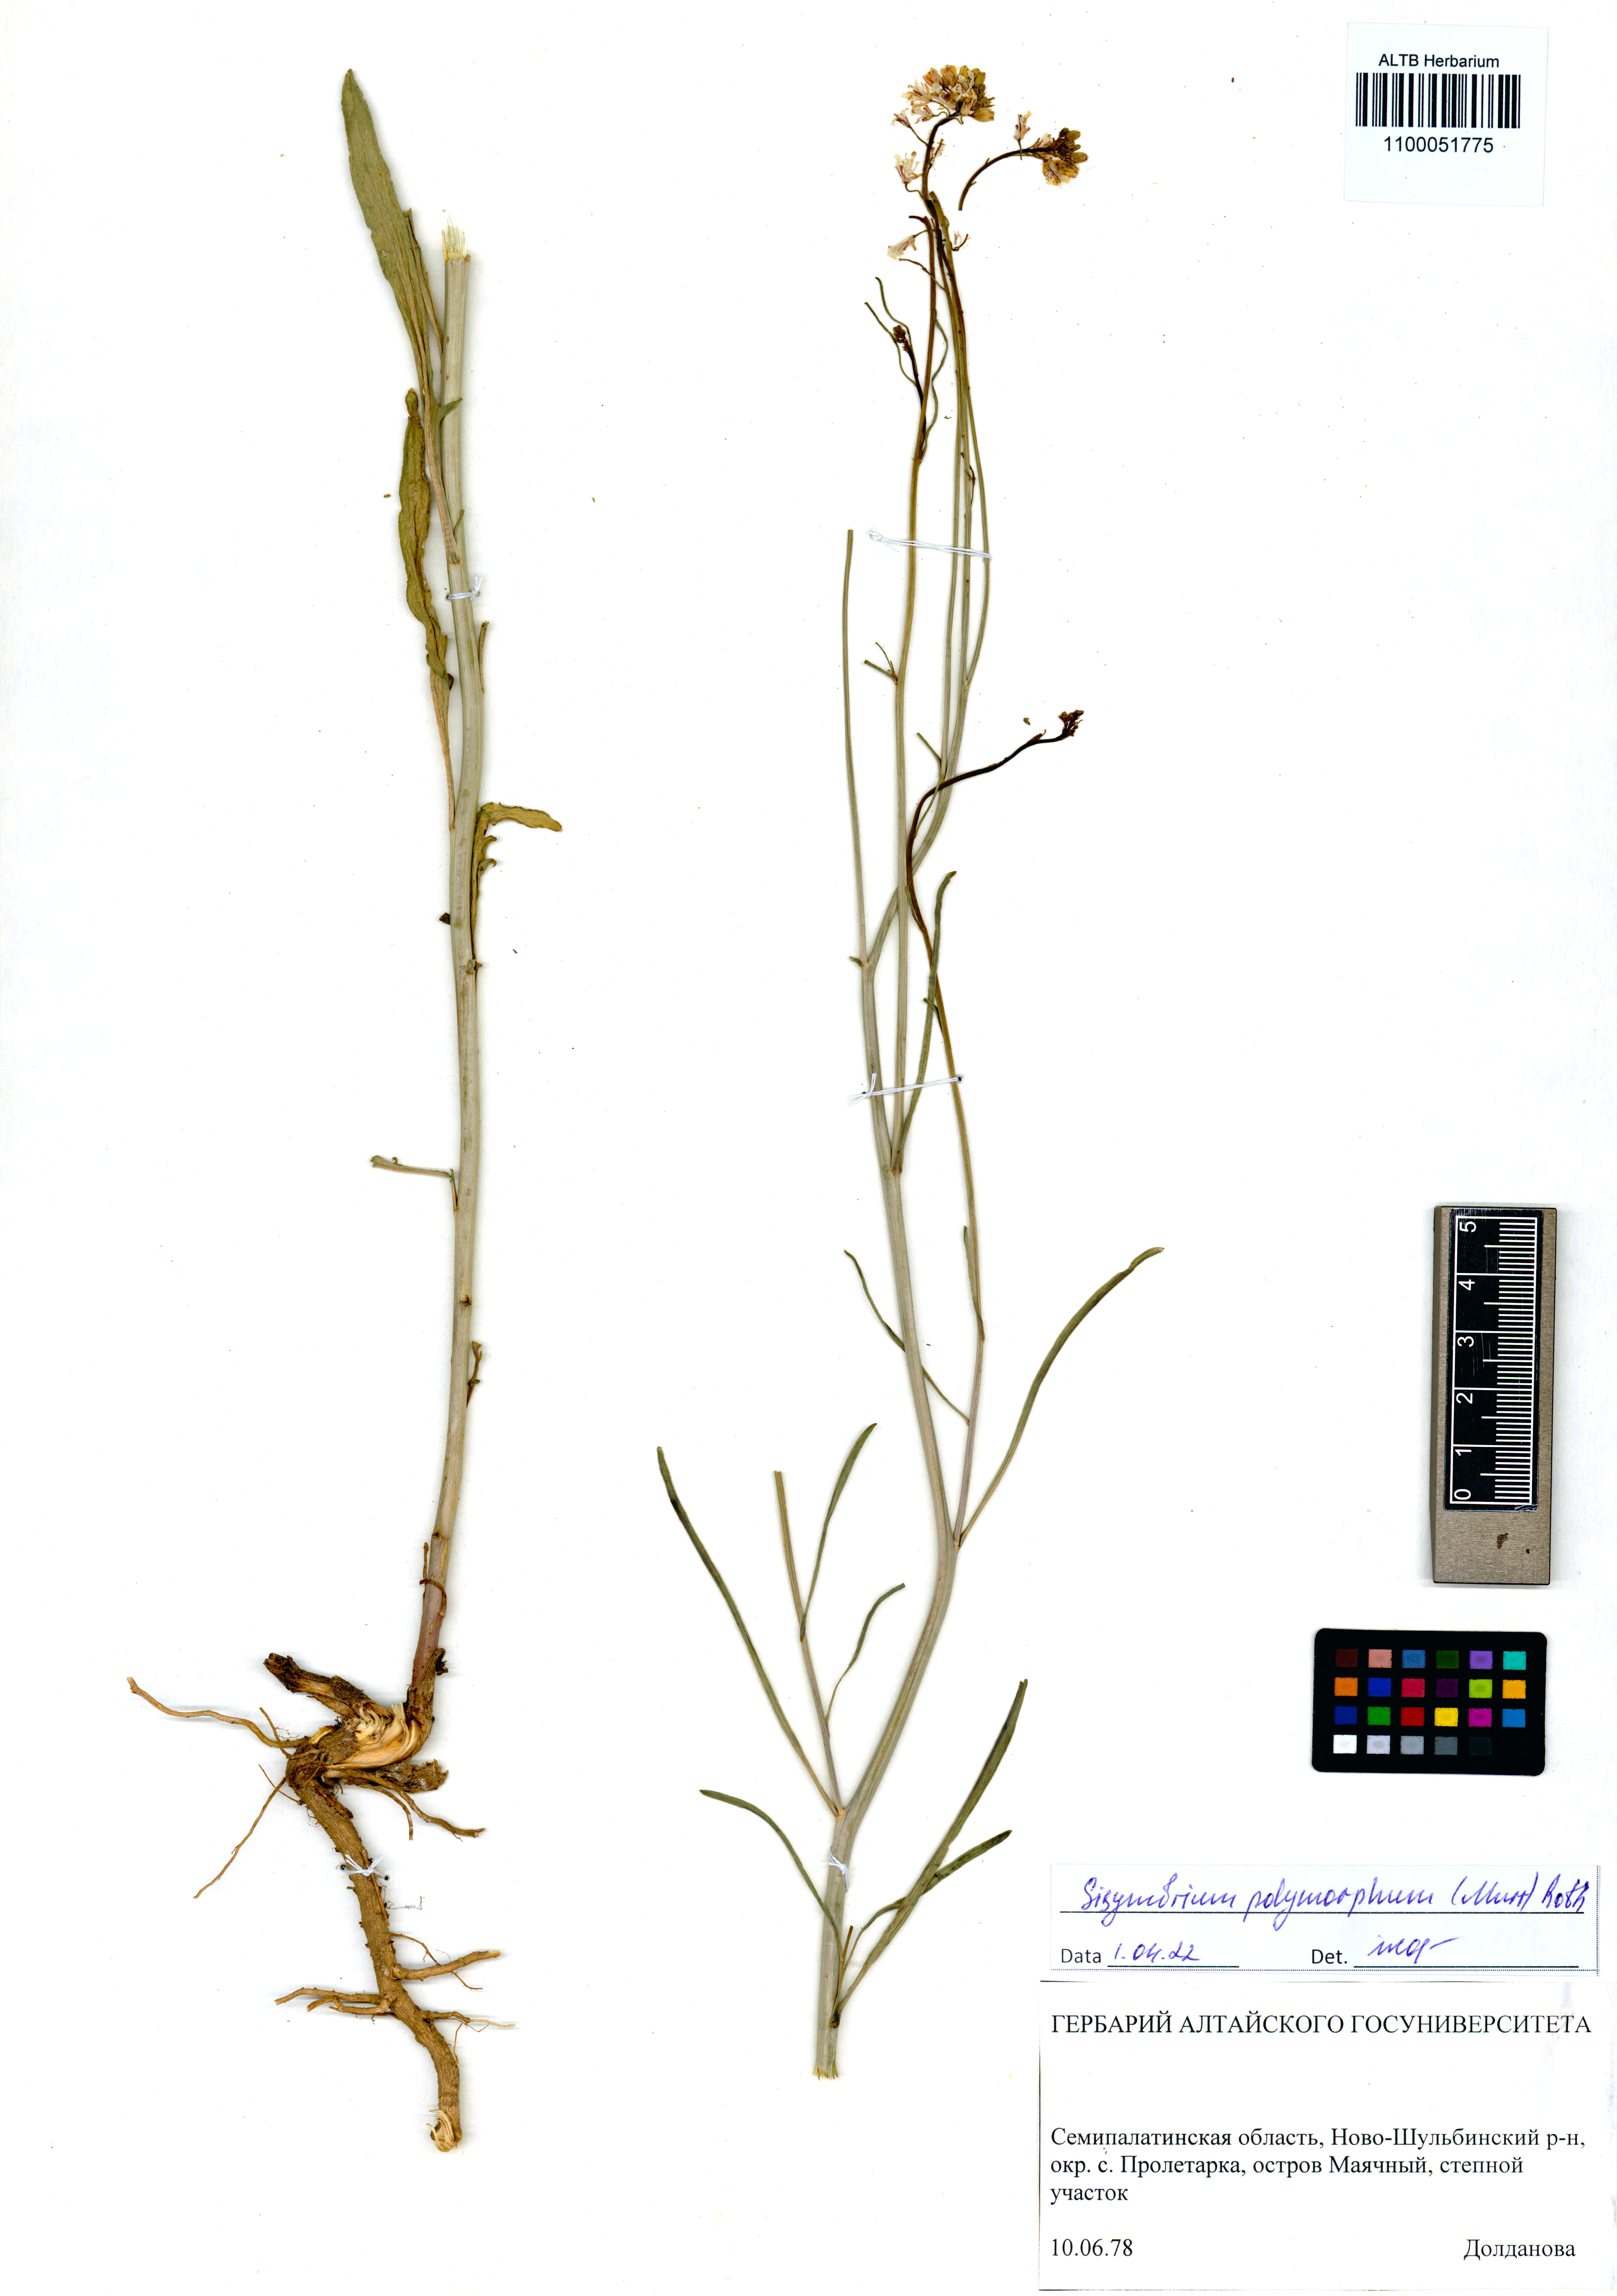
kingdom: Plantae
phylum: Tracheophyta
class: Magnoliopsida
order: Brassicales
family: Brassicaceae
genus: Sisymbrium
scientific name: Sisymbrium polymorphum
